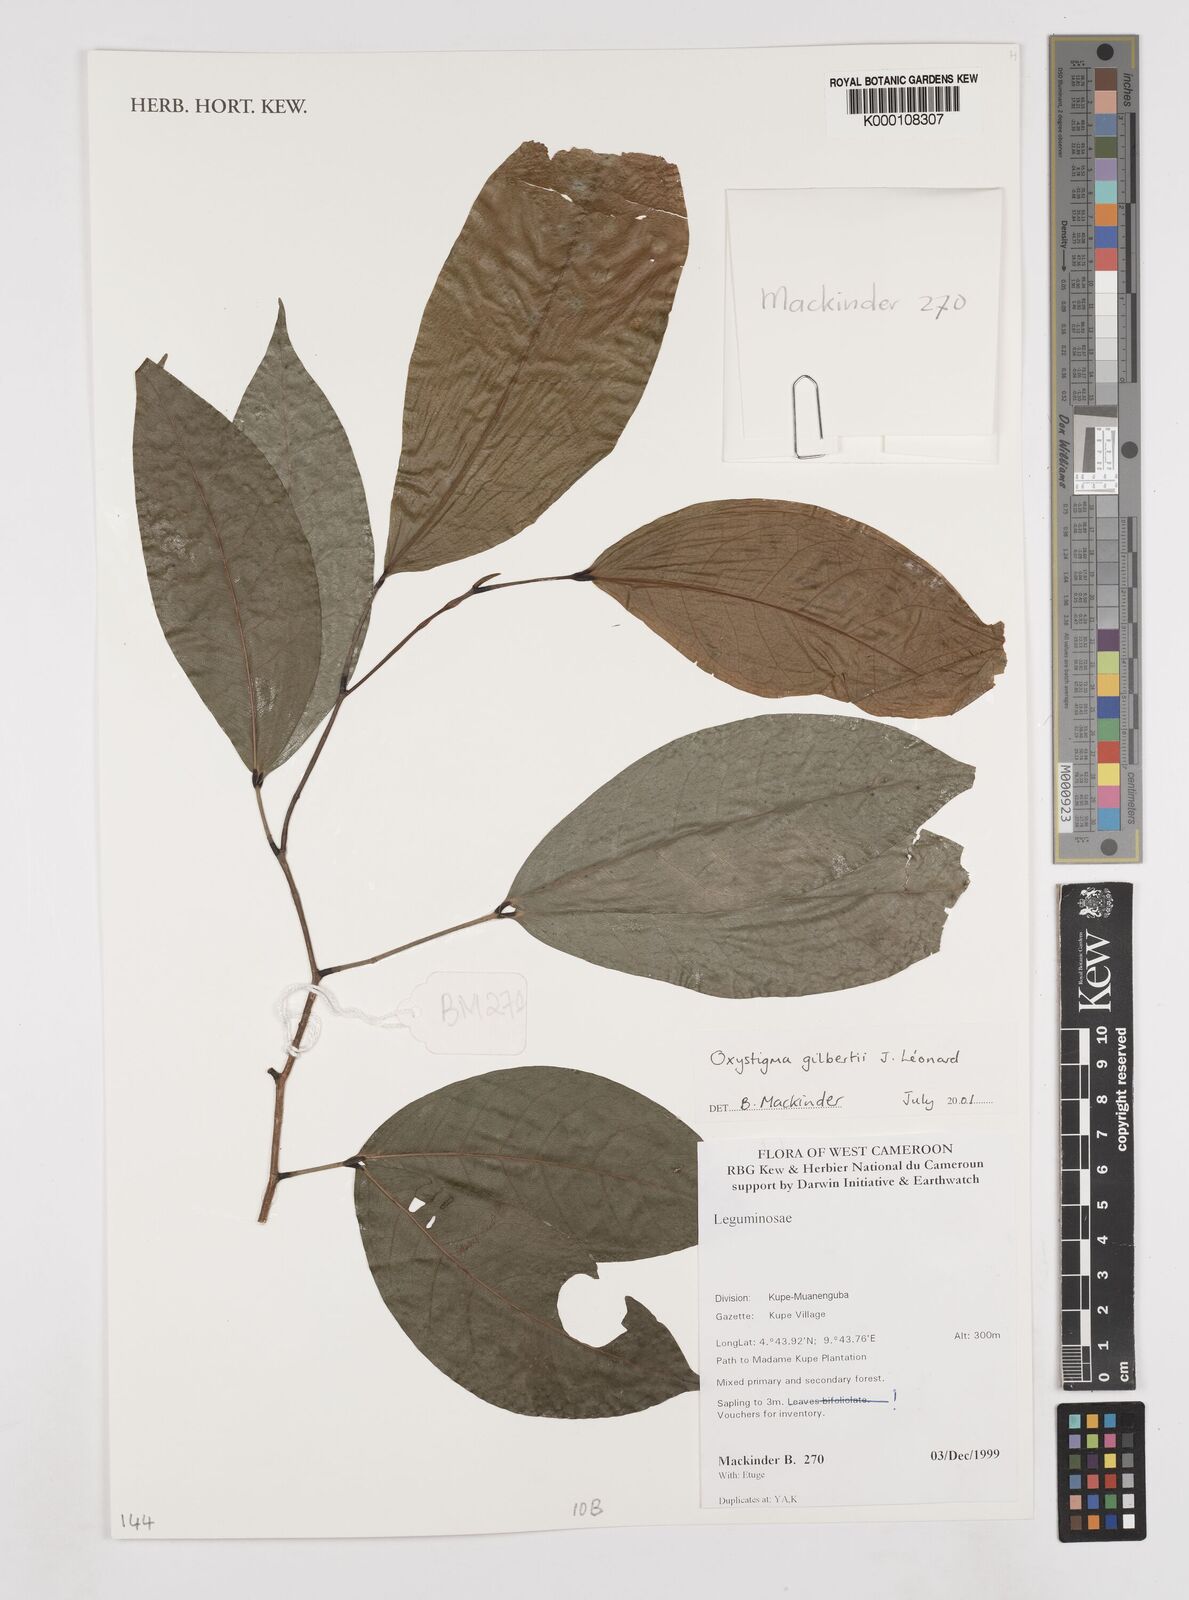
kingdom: Animalia
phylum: Arthropoda
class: Insecta
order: Odonata
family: Heteragrionidae
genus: Oxystigma
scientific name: Oxystigma
